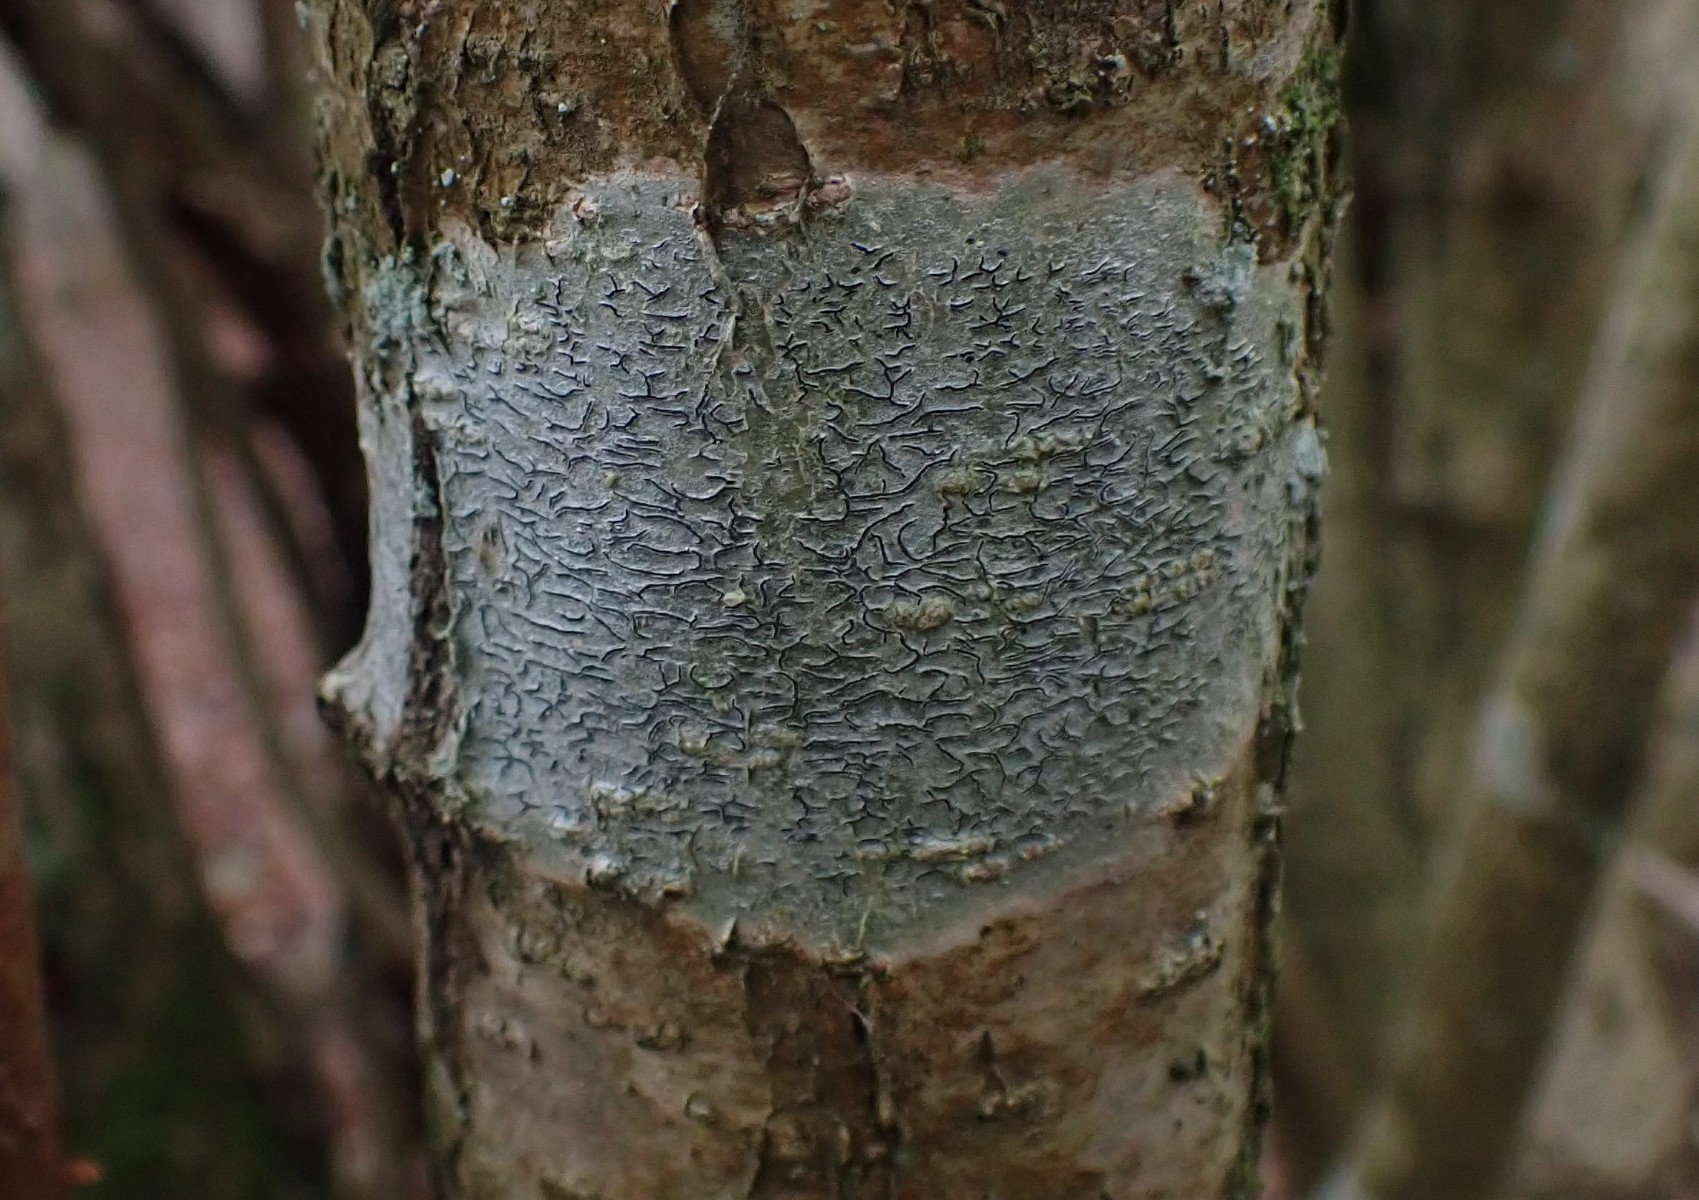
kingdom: Fungi
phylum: Ascomycota
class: Lecanoromycetes
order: Ostropales
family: Graphidaceae
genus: Graphis
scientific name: Graphis scripta
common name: almindelig skriftlav
